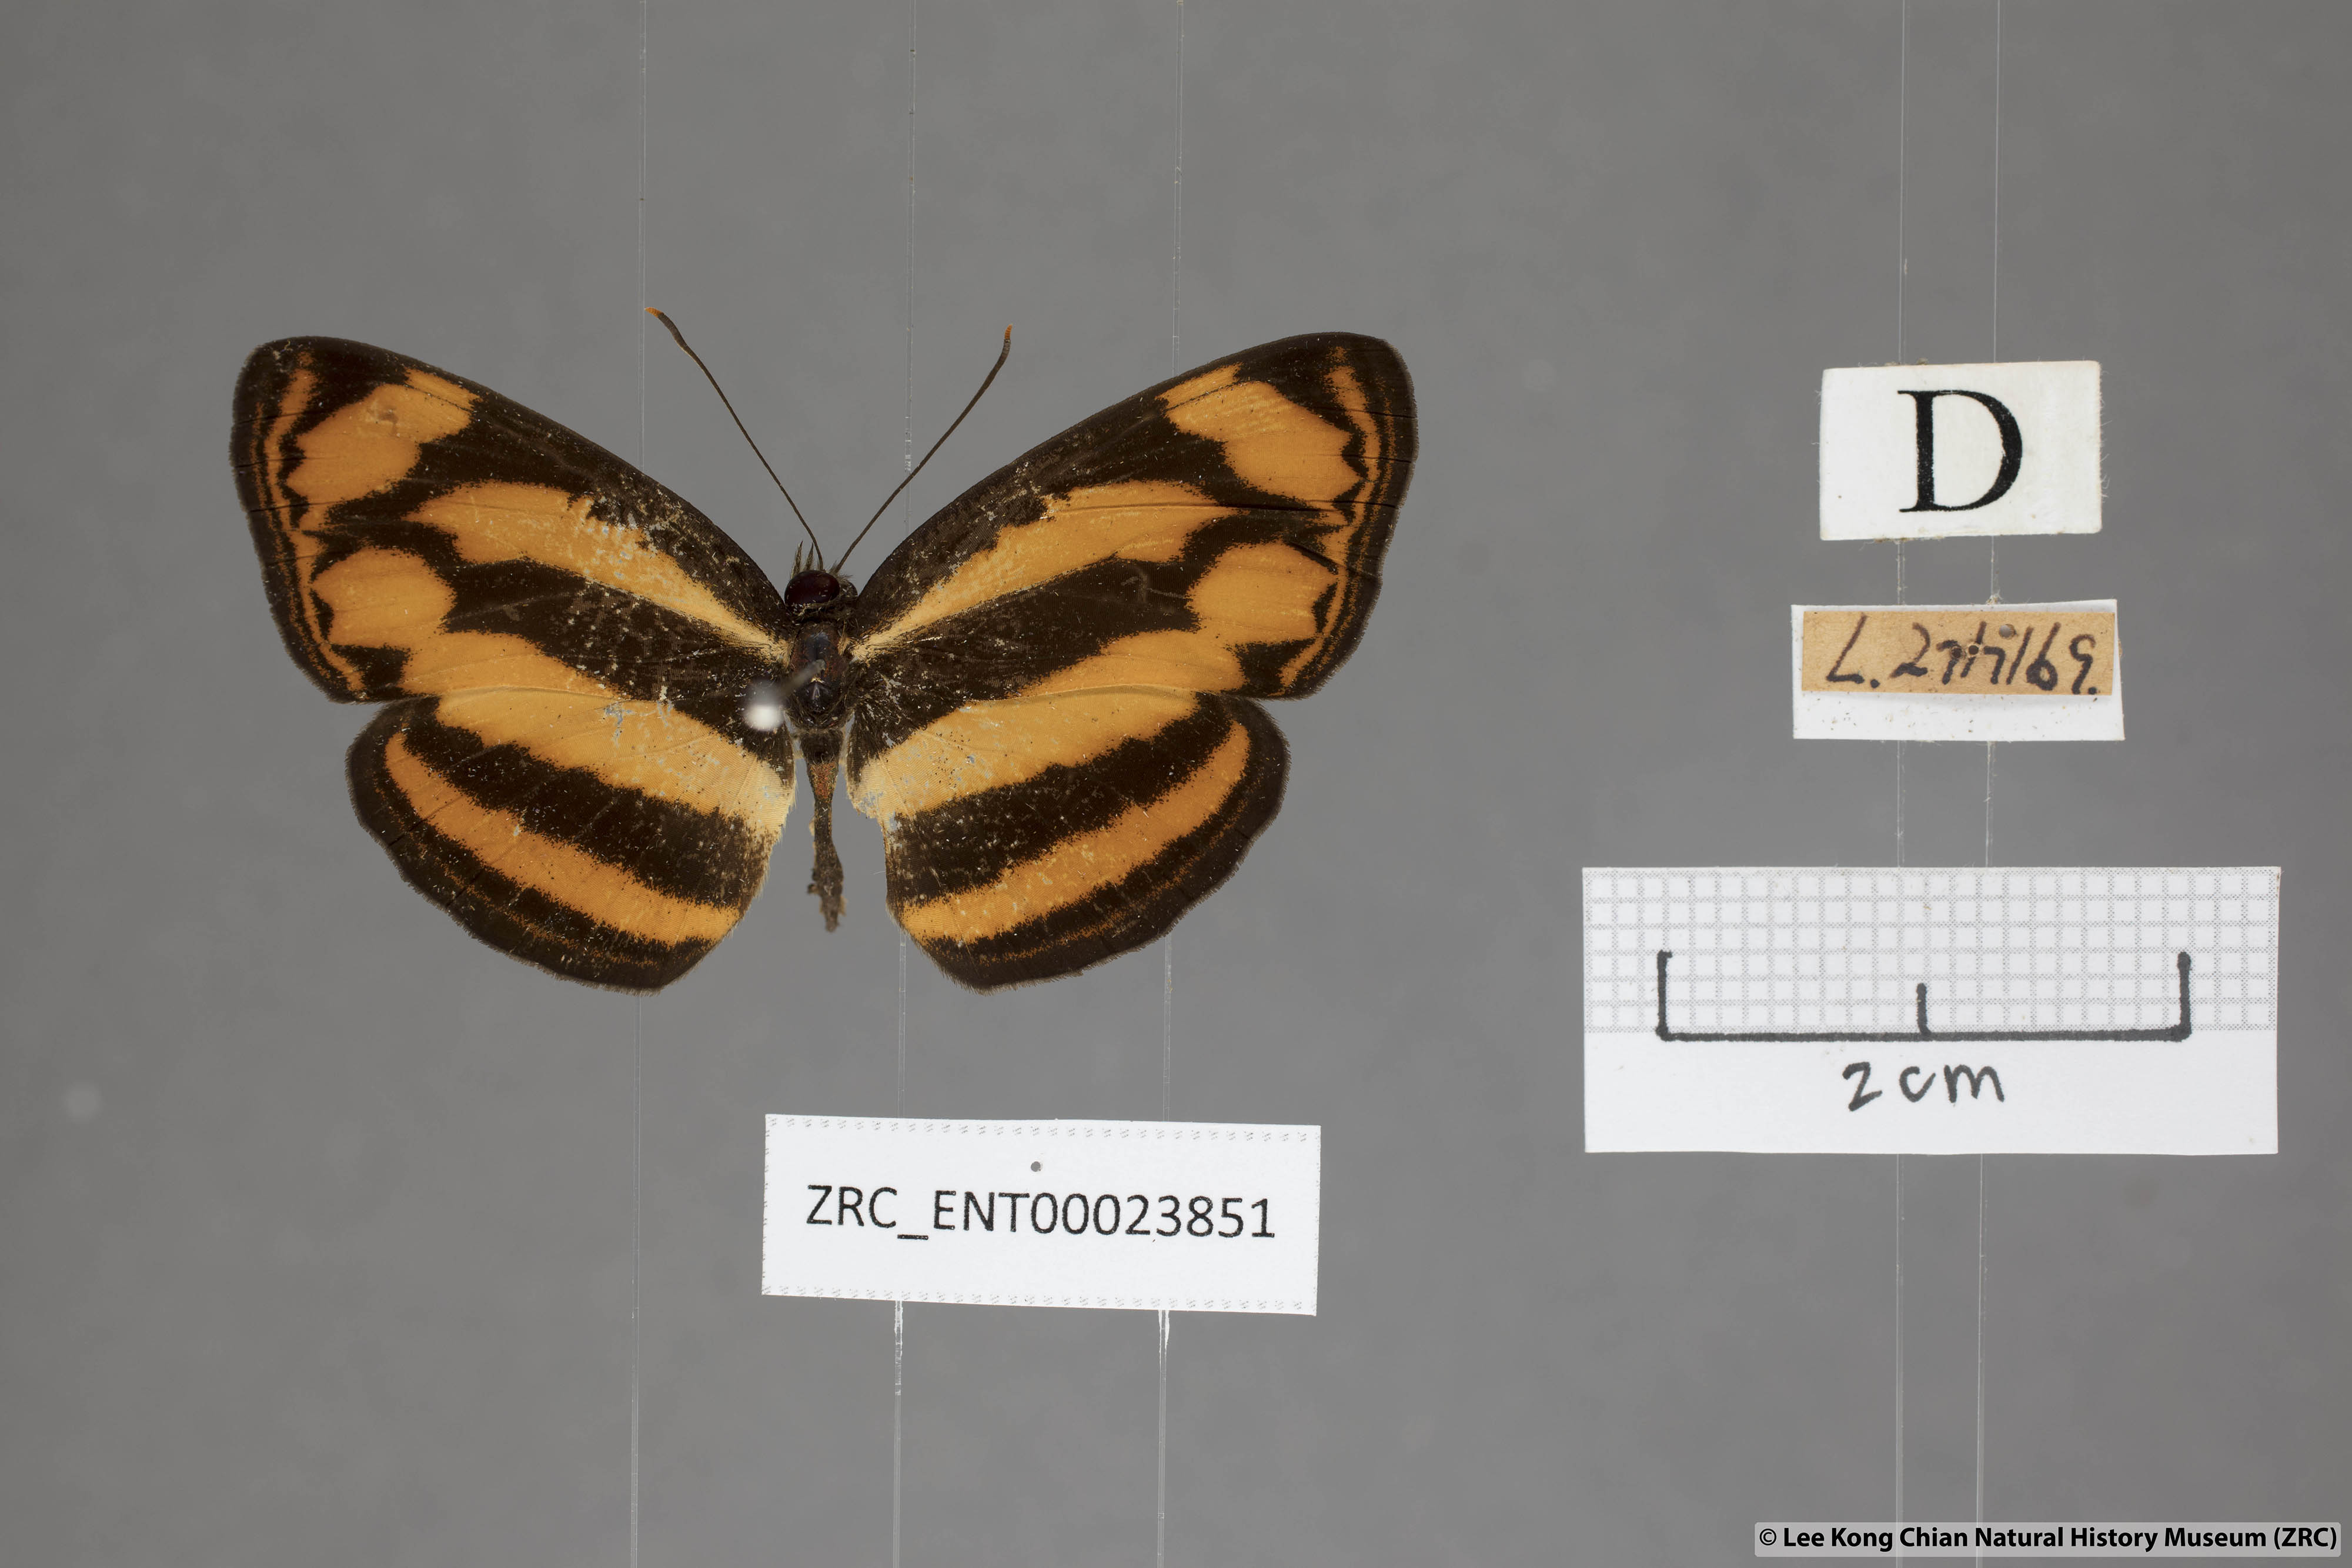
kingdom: Animalia
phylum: Arthropoda
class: Insecta
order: Lepidoptera
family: Nymphalidae
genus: Lasippa
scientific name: Lasippa tiga
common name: Malayan lascar
